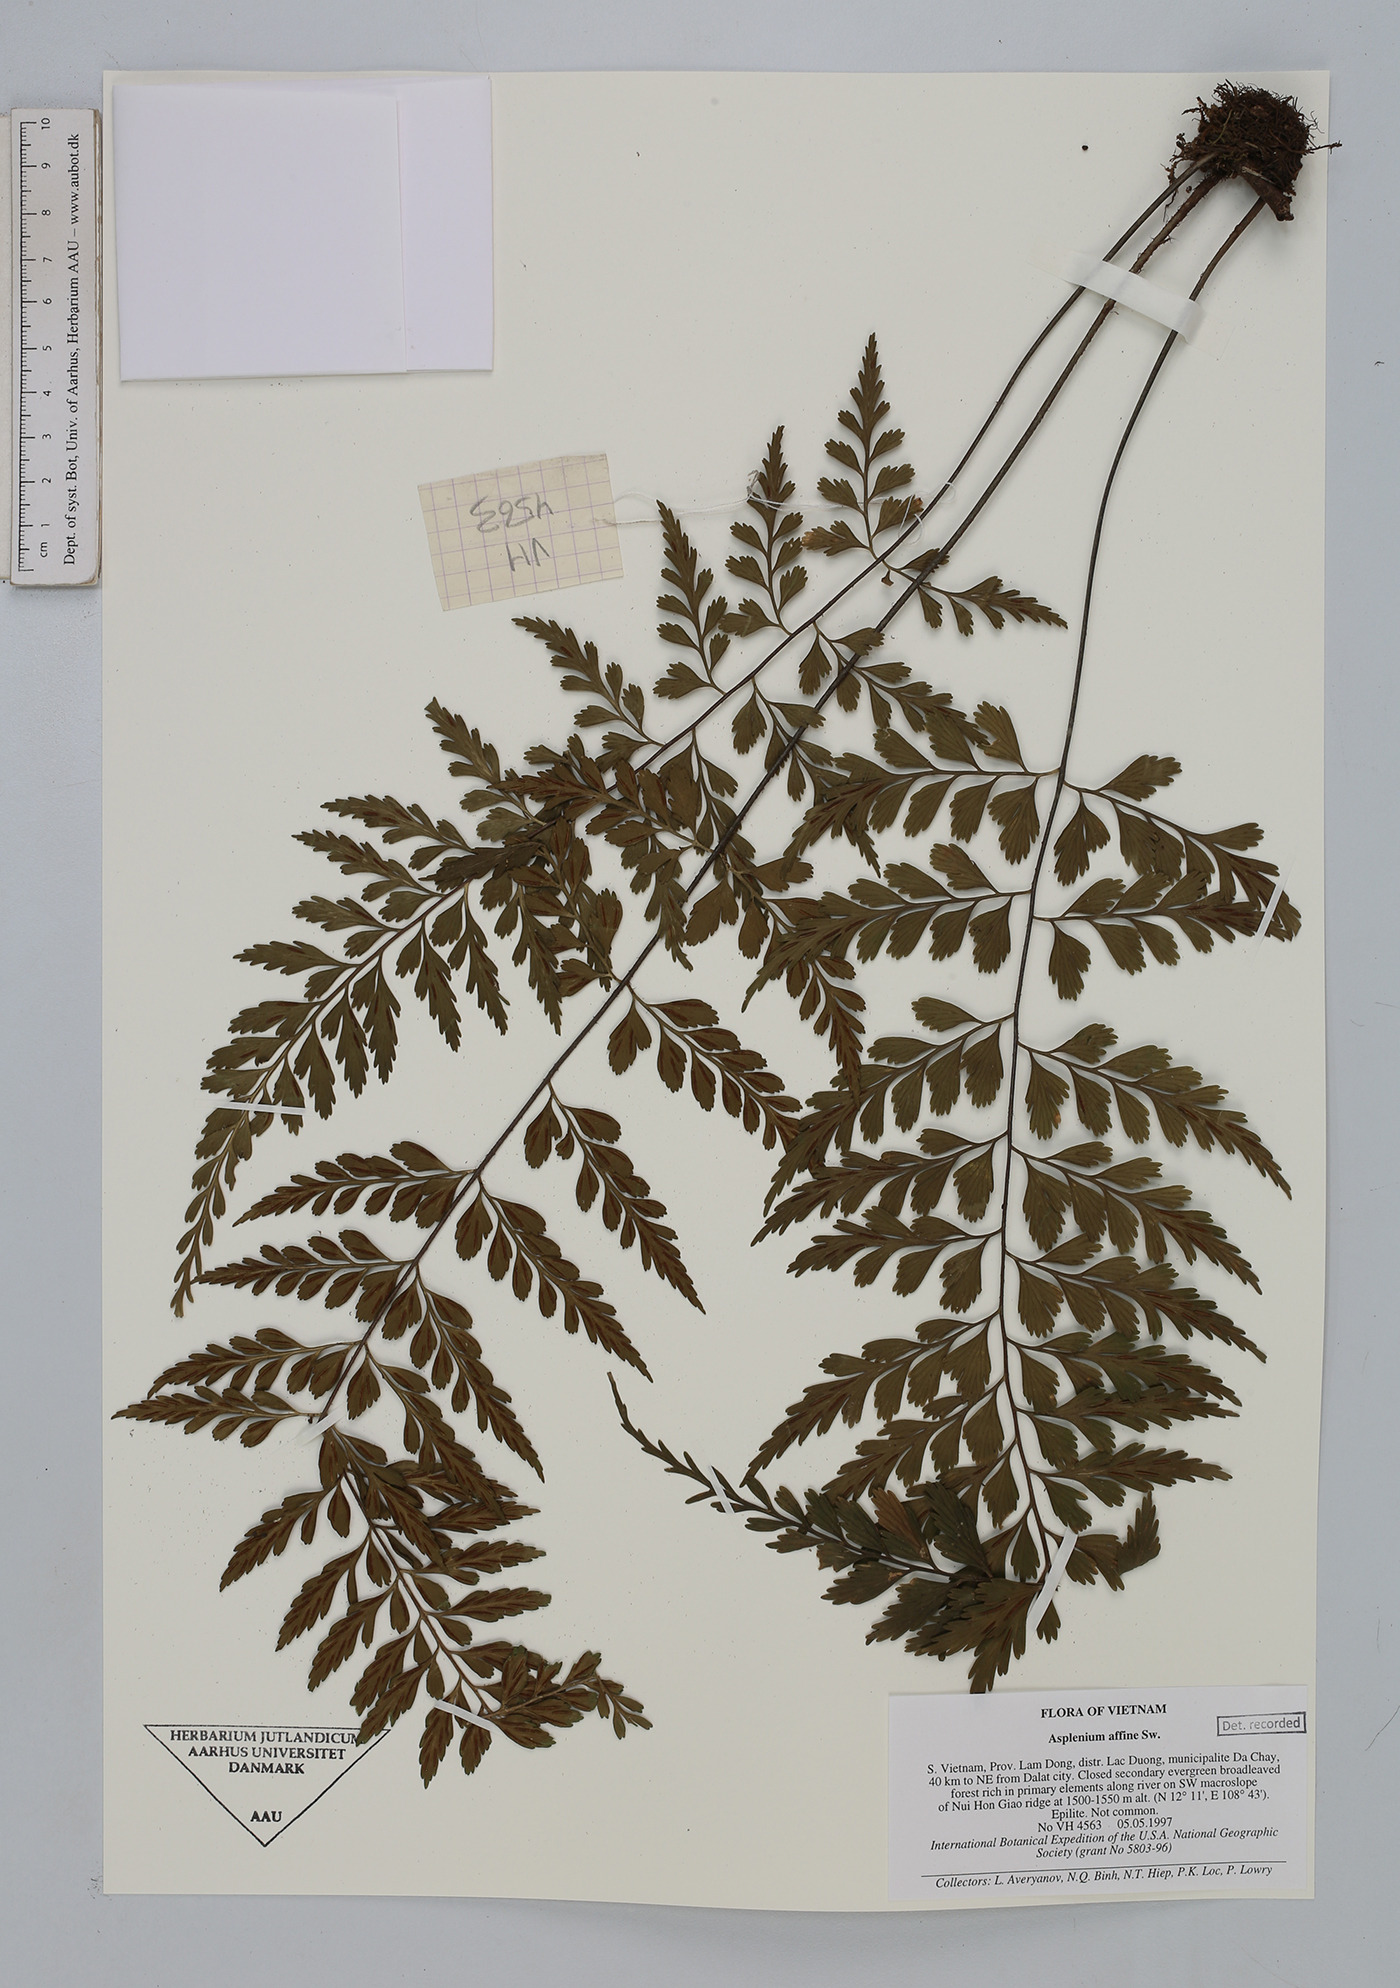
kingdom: Plantae
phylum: Tracheophyta
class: Polypodiopsida
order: Polypodiales
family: Aspleniaceae
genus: Asplenium
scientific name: Asplenium affine
